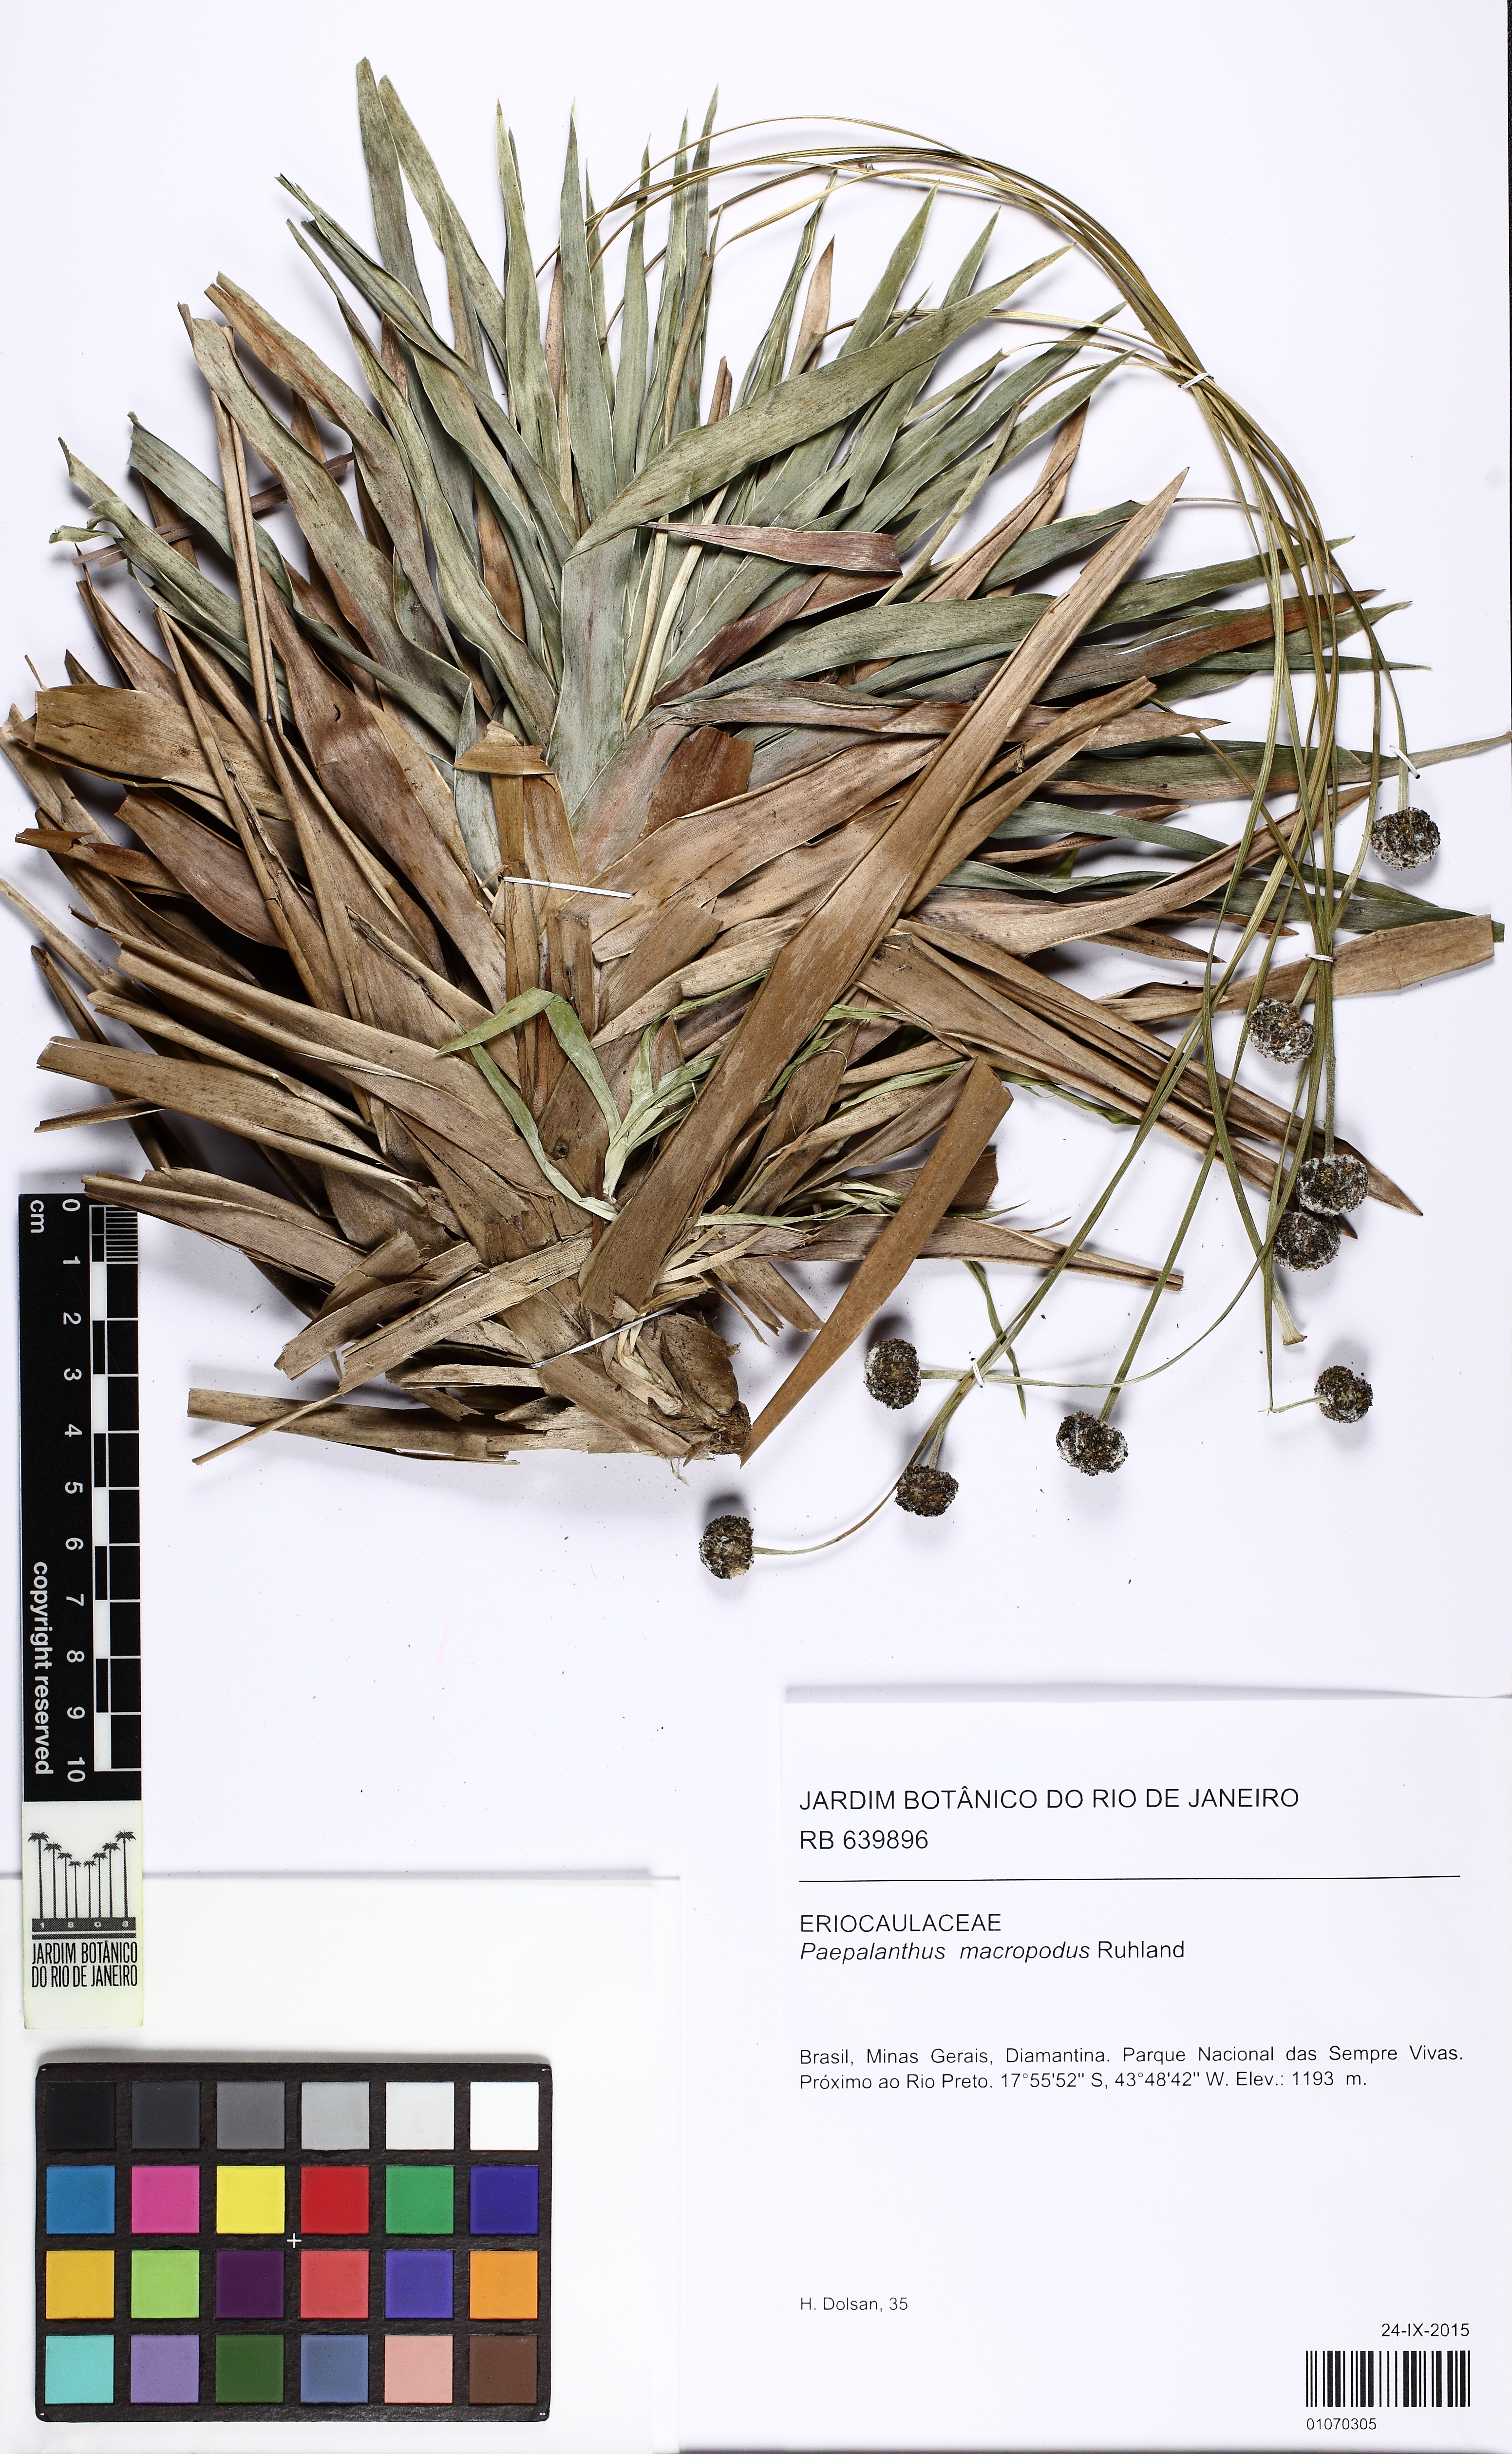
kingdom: Plantae
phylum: Tracheophyta
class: Liliopsida
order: Poales
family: Eriocaulaceae
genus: Paepalanthus
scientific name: Paepalanthus macropodus
